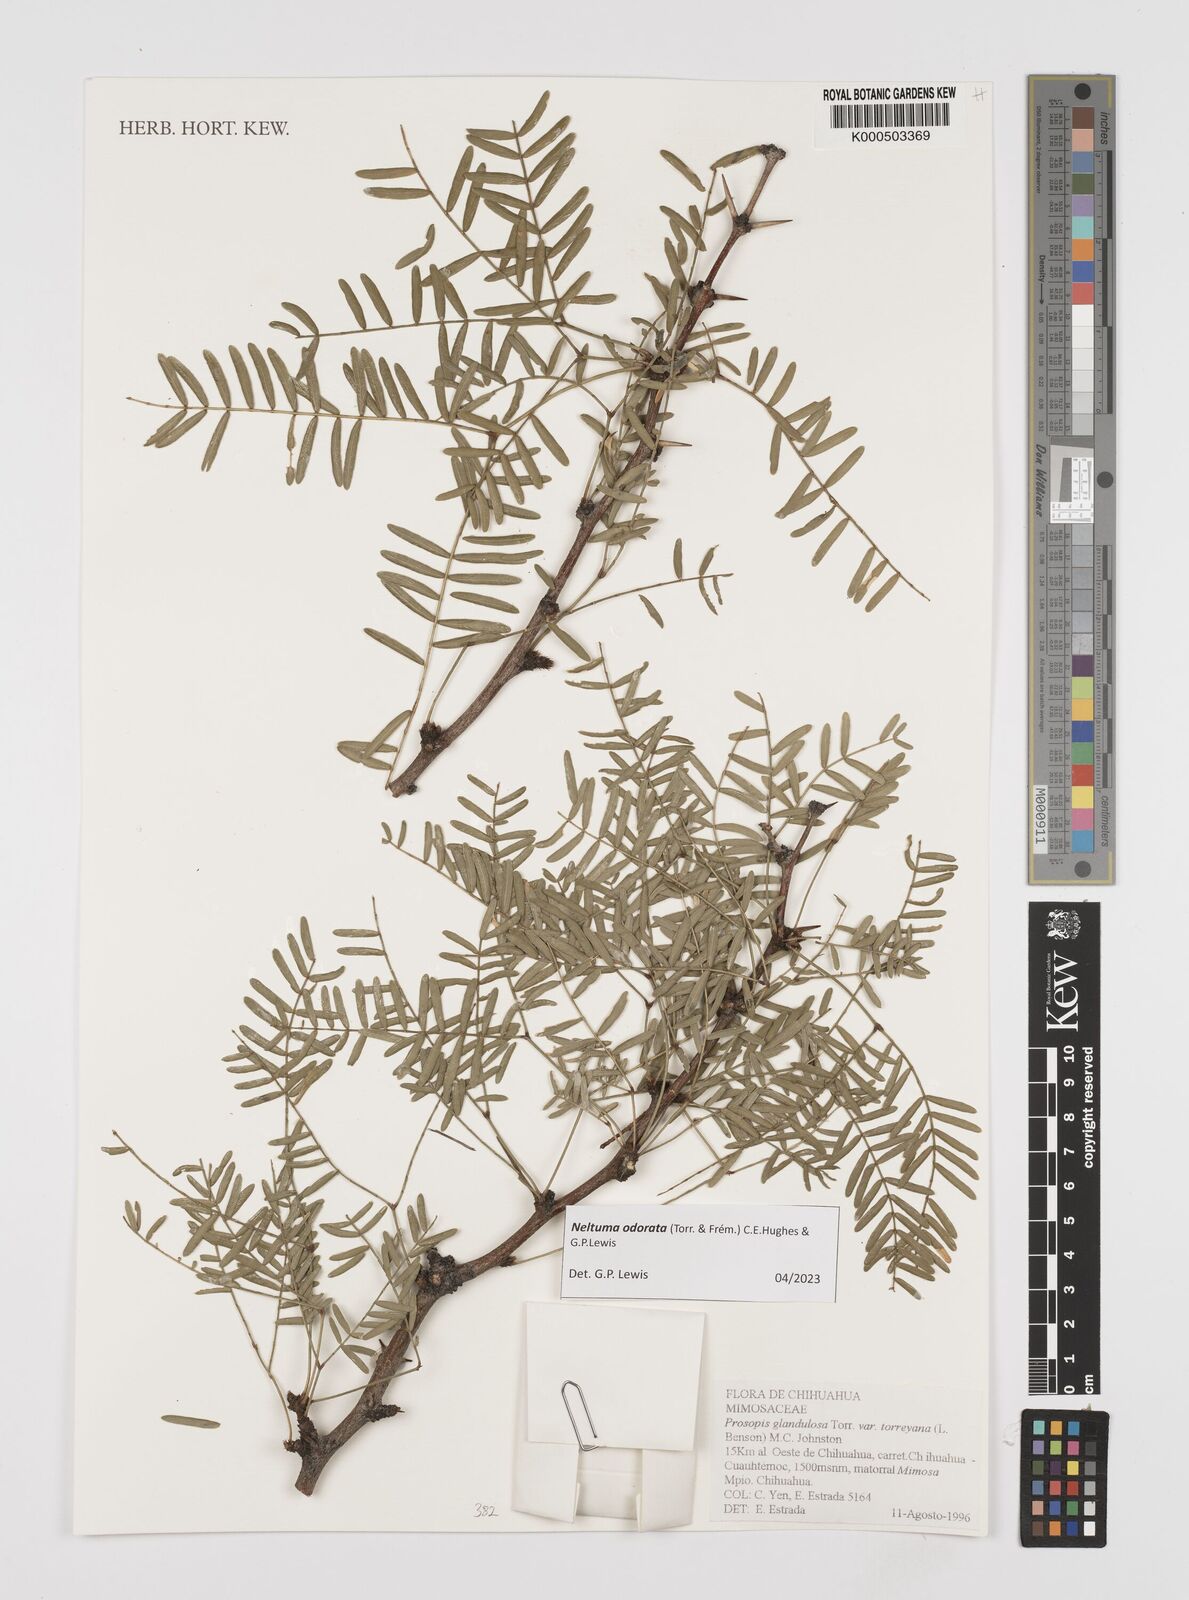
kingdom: Plantae
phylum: Tracheophyta
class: Magnoliopsida
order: Fabales
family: Fabaceae
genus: Prosopis
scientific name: Prosopis glandulosa
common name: Honey mesquite
